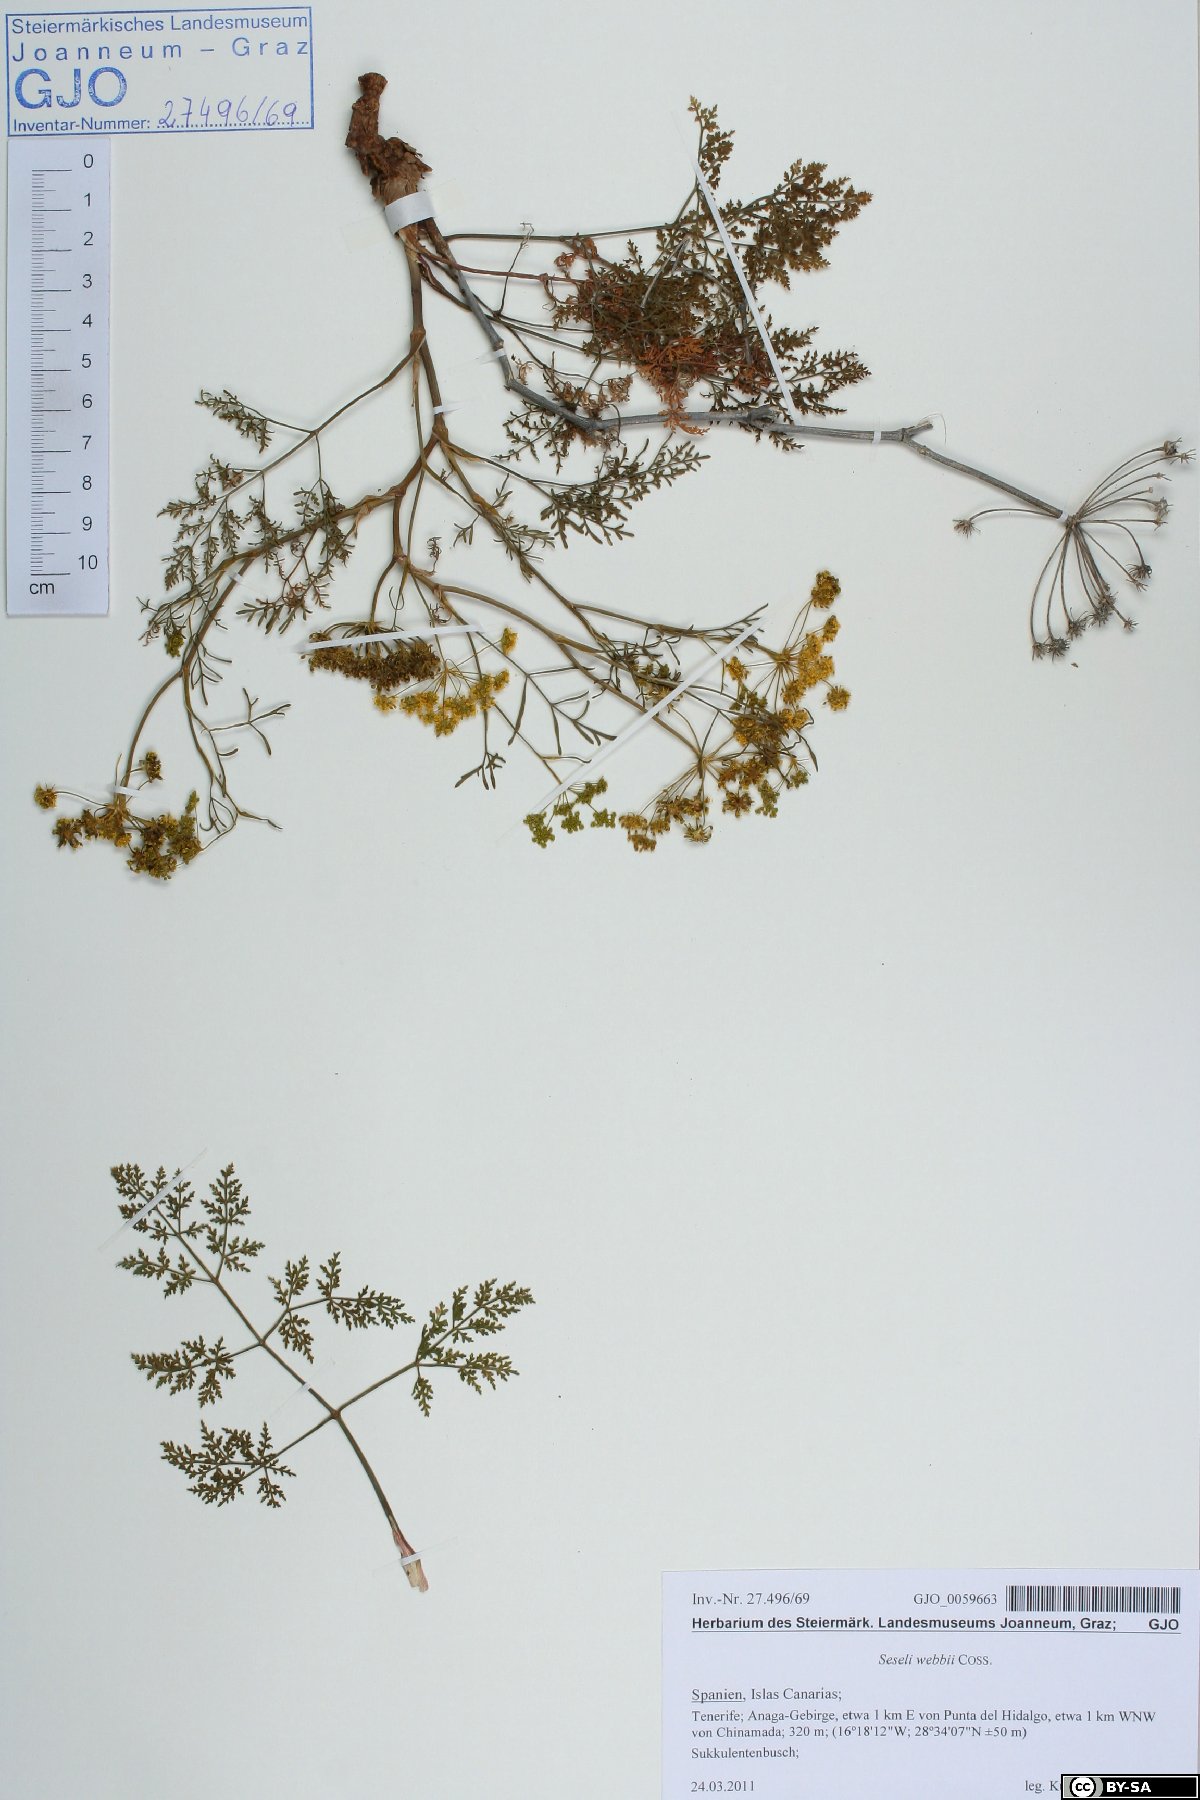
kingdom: Plantae
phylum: Tracheophyta
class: Magnoliopsida
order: Apiales
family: Apiaceae
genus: Rutheopsis
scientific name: Rutheopsis tortuosa
